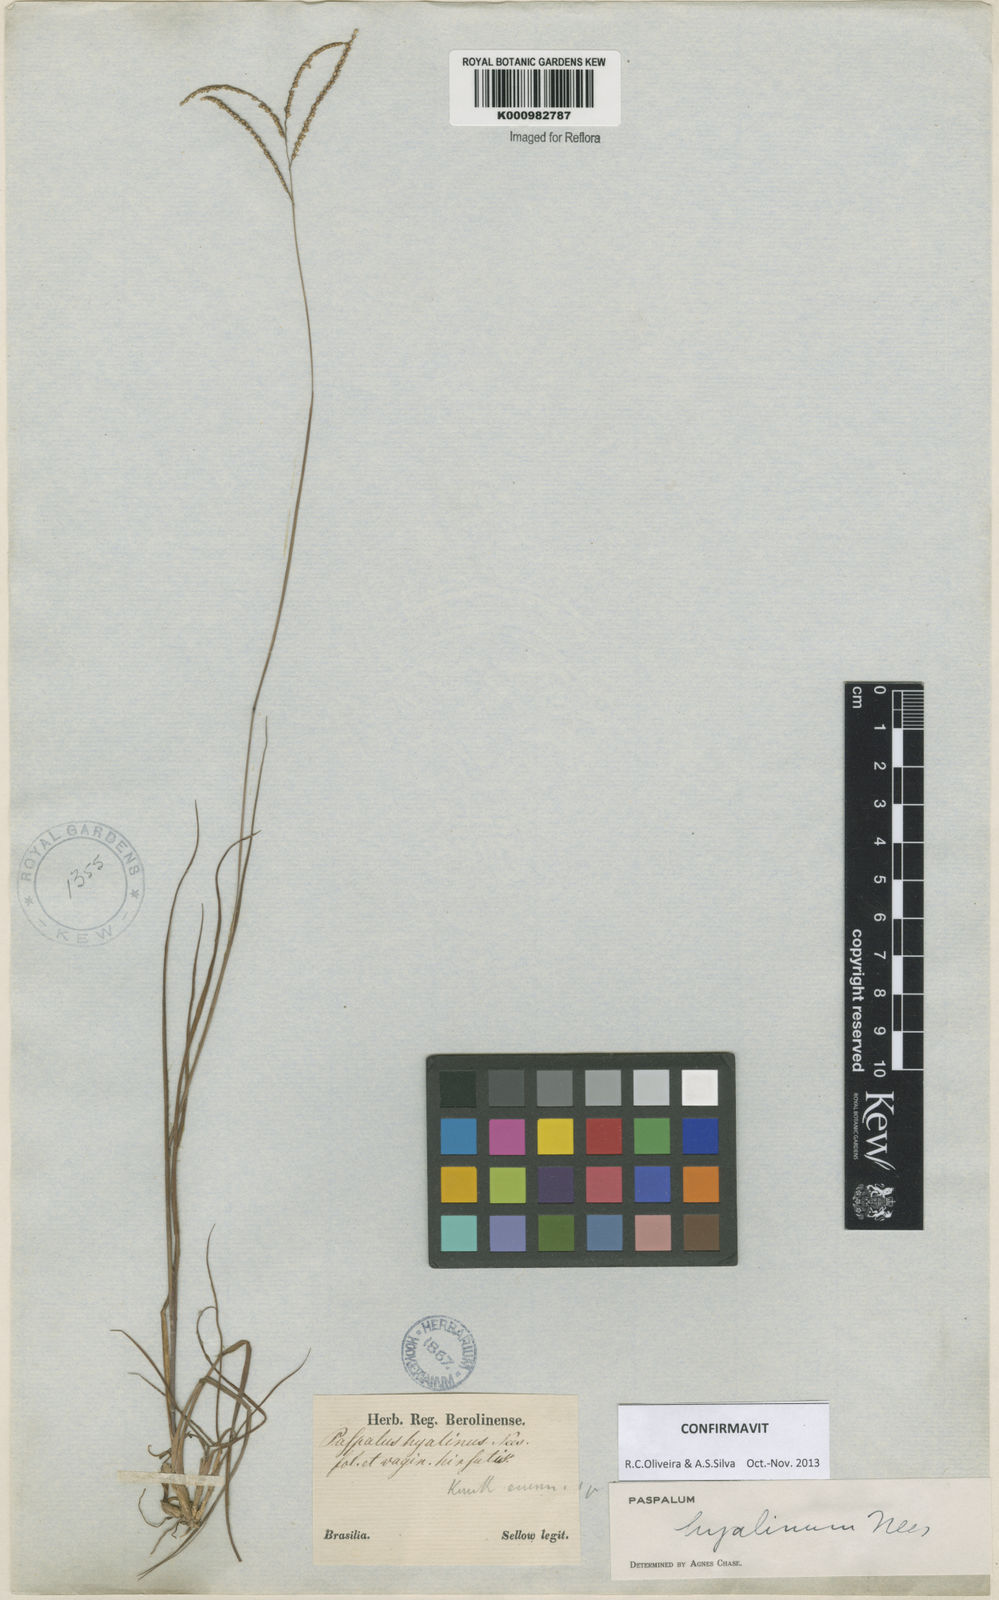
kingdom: Plantae
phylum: Tracheophyta
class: Liliopsida
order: Poales
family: Poaceae
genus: Paspalum
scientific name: Paspalum hyalinum
